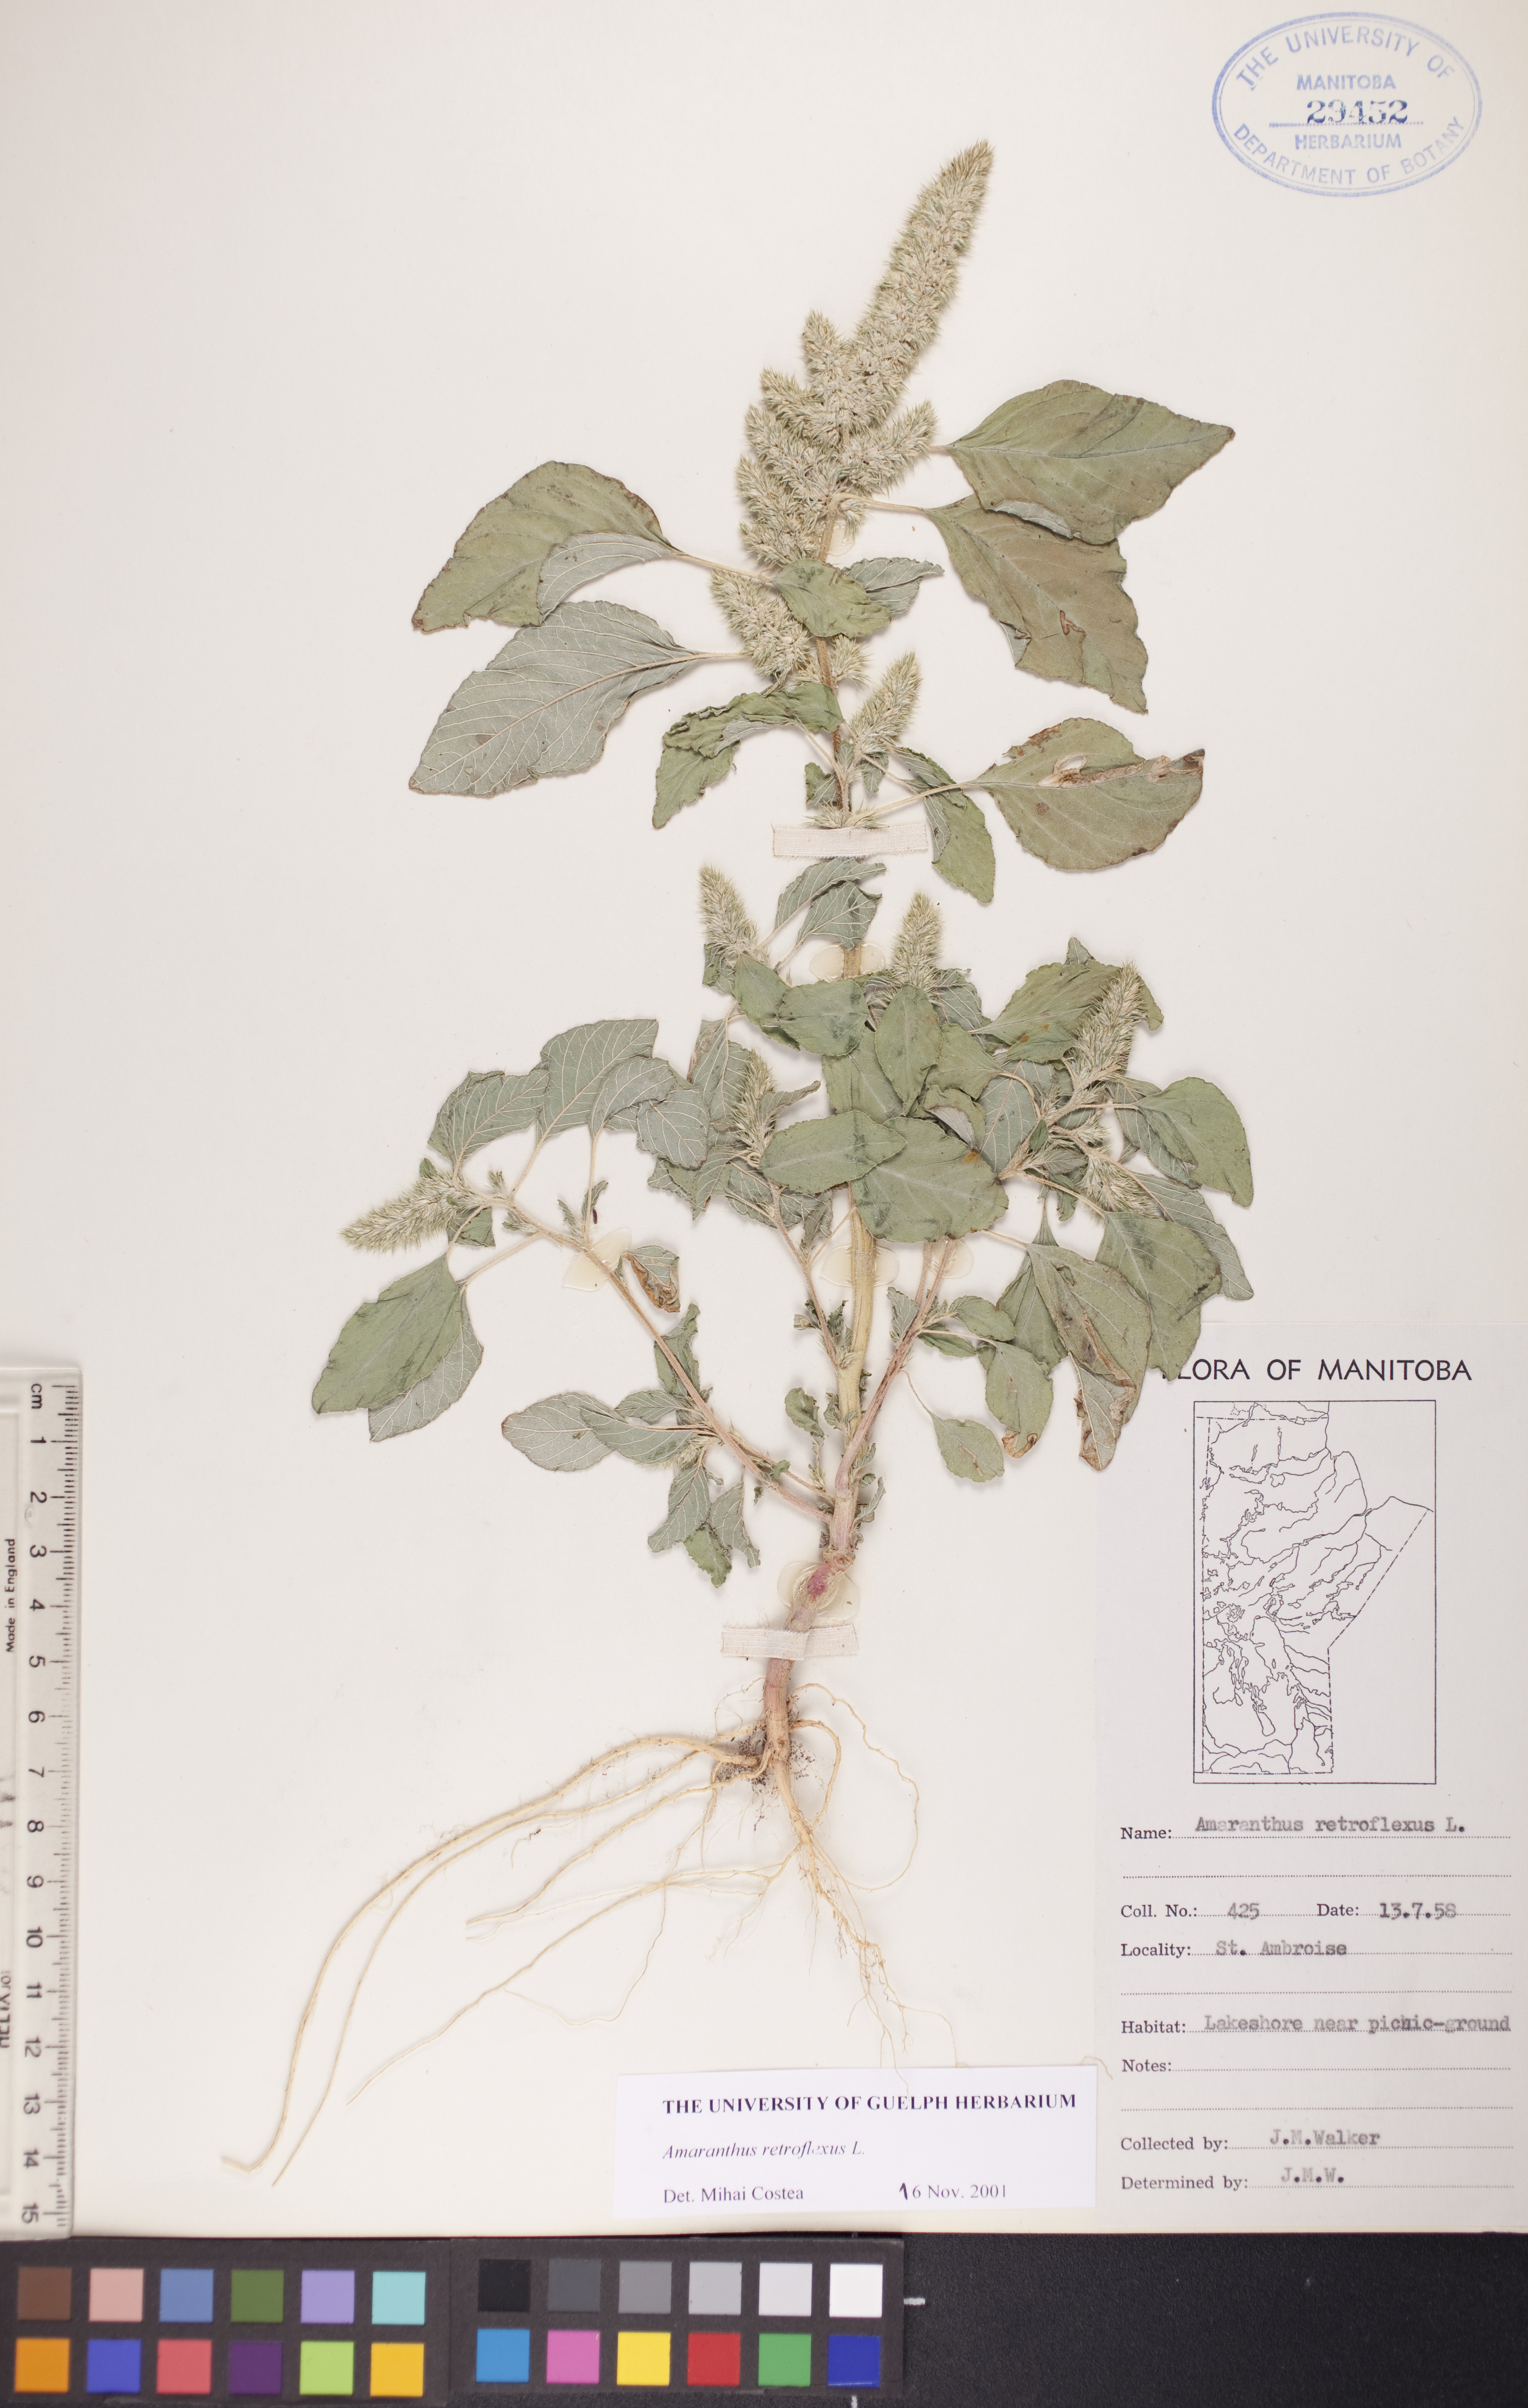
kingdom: Plantae
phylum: Tracheophyta
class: Magnoliopsida
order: Caryophyllales
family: Amaranthaceae
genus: Amaranthus
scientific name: Amaranthus retroflexus
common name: Redroot amaranth
